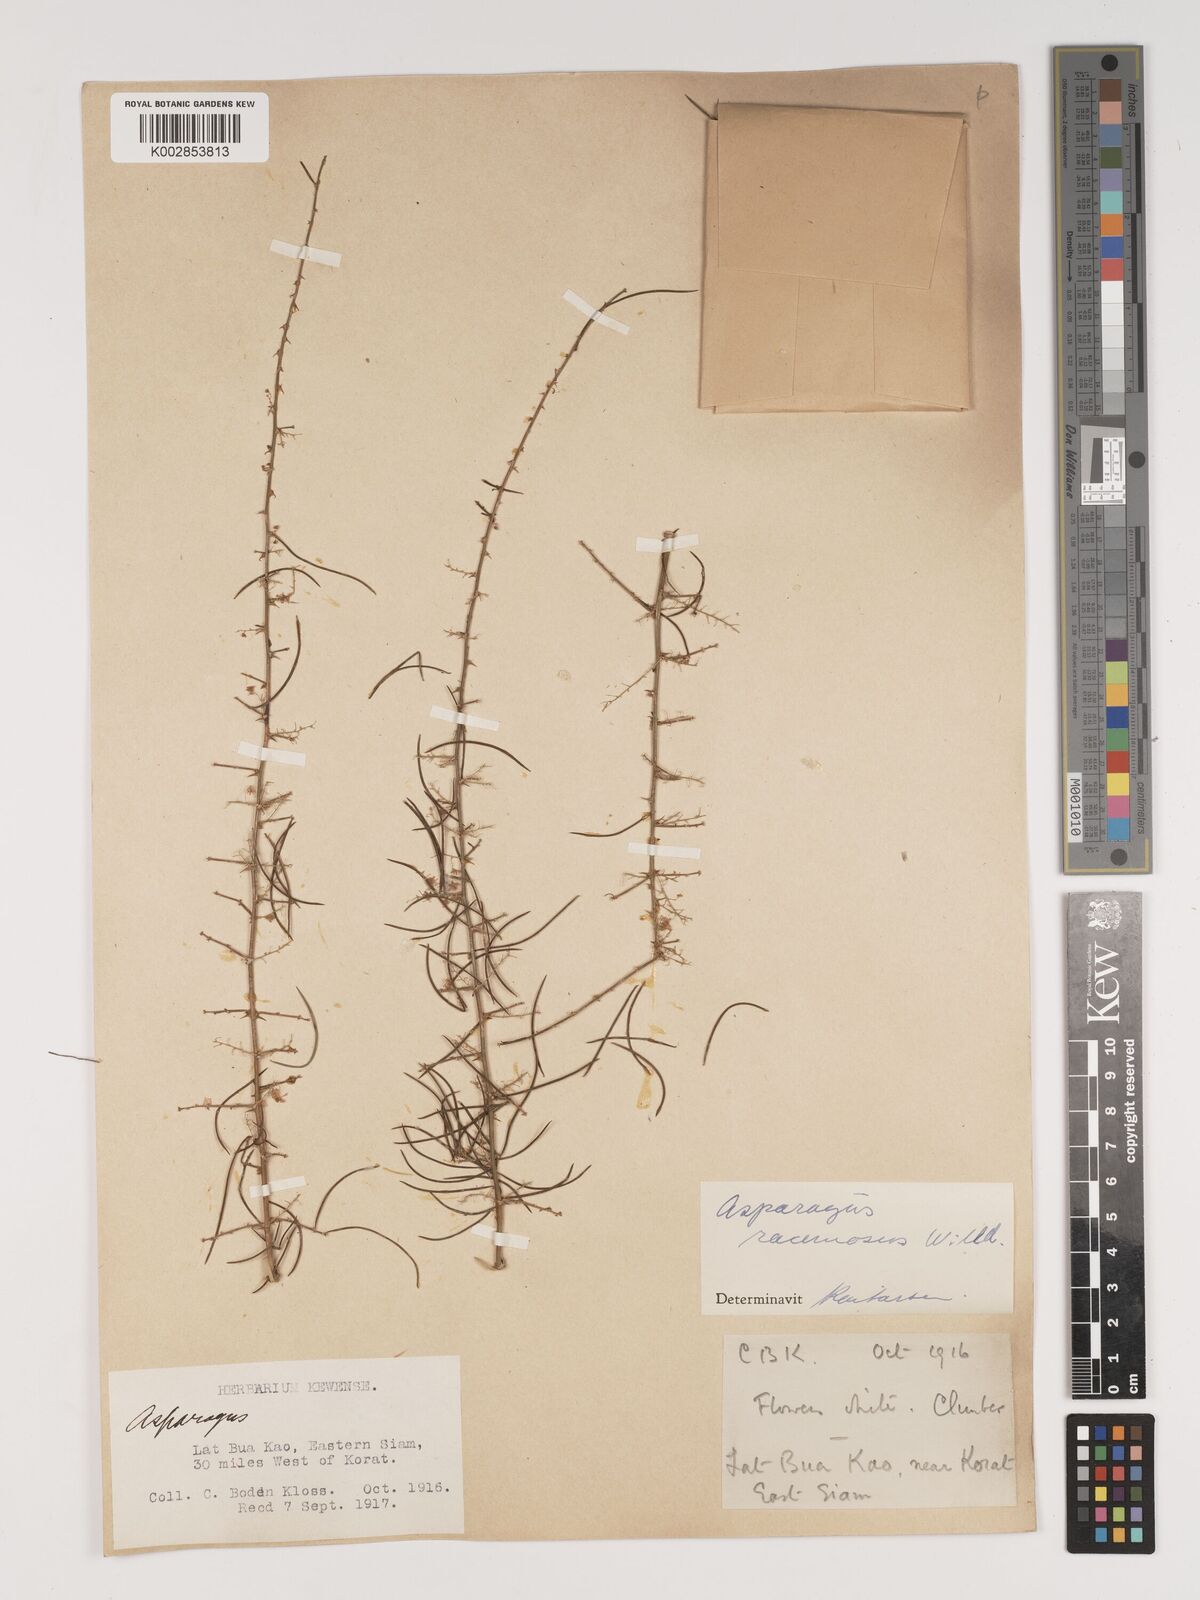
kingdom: Plantae
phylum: Tracheophyta
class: Liliopsida
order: Asparagales
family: Asparagaceae
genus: Asparagus
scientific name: Asparagus racemosus
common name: Asparagus-fern
